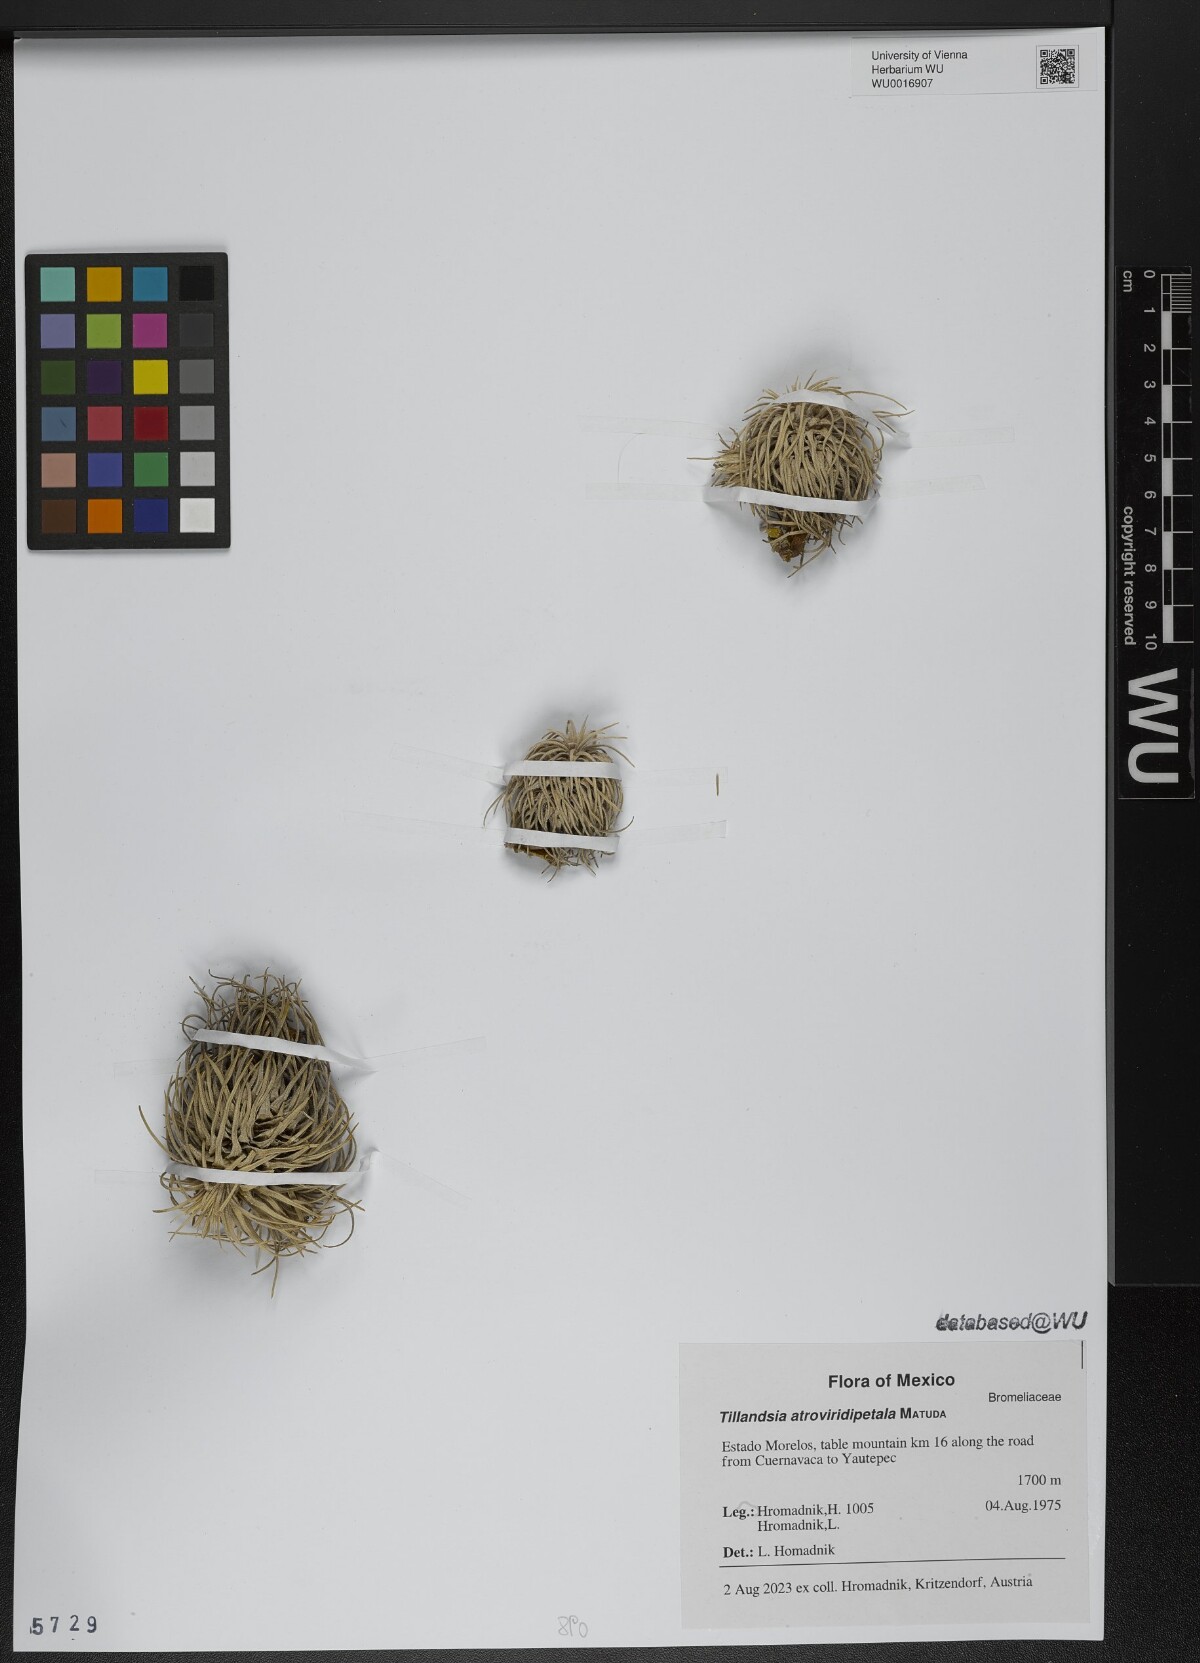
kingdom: Plantae
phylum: Tracheophyta
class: Liliopsida
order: Poales
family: Bromeliaceae
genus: Tillandsia
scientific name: Tillandsia atroviridipetala
